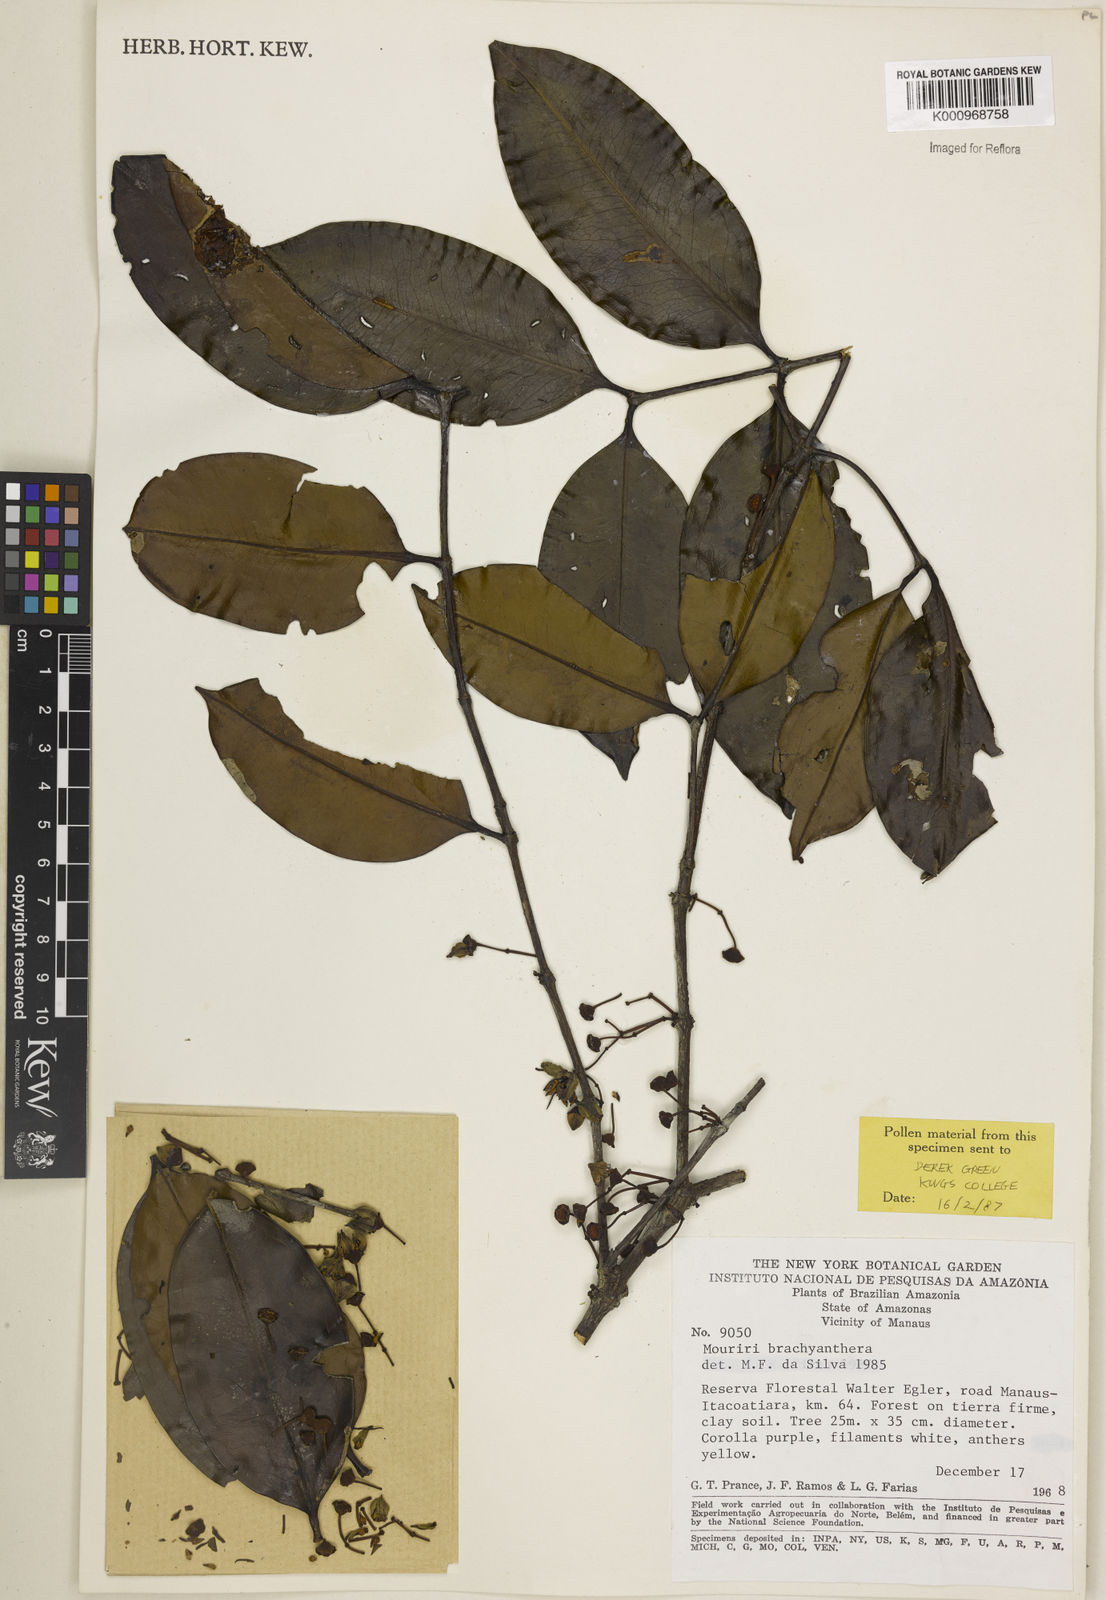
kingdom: Plantae
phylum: Tracheophyta
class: Magnoliopsida
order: Myrtales
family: Melastomataceae
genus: Mouriri
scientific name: Mouriri brachyanthera
